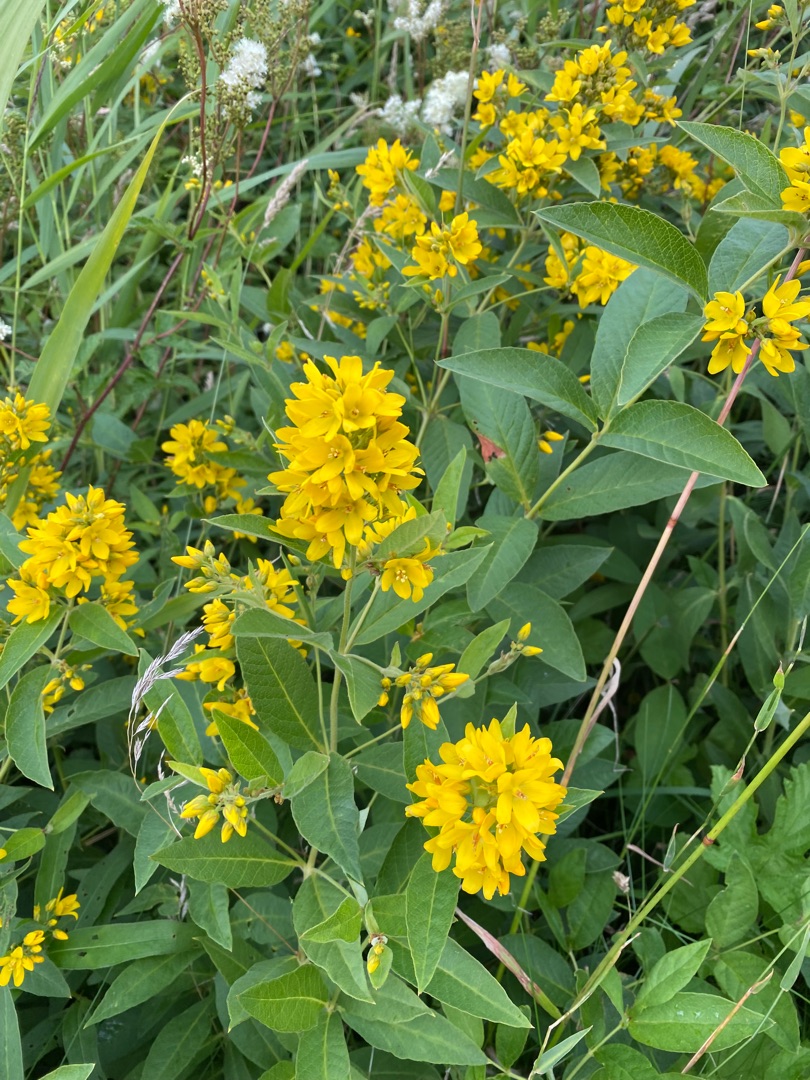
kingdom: Plantae
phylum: Tracheophyta
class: Magnoliopsida
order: Ericales
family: Primulaceae
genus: Lysimachia
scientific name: Lysimachia vulgaris
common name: Almindelig fredløs
